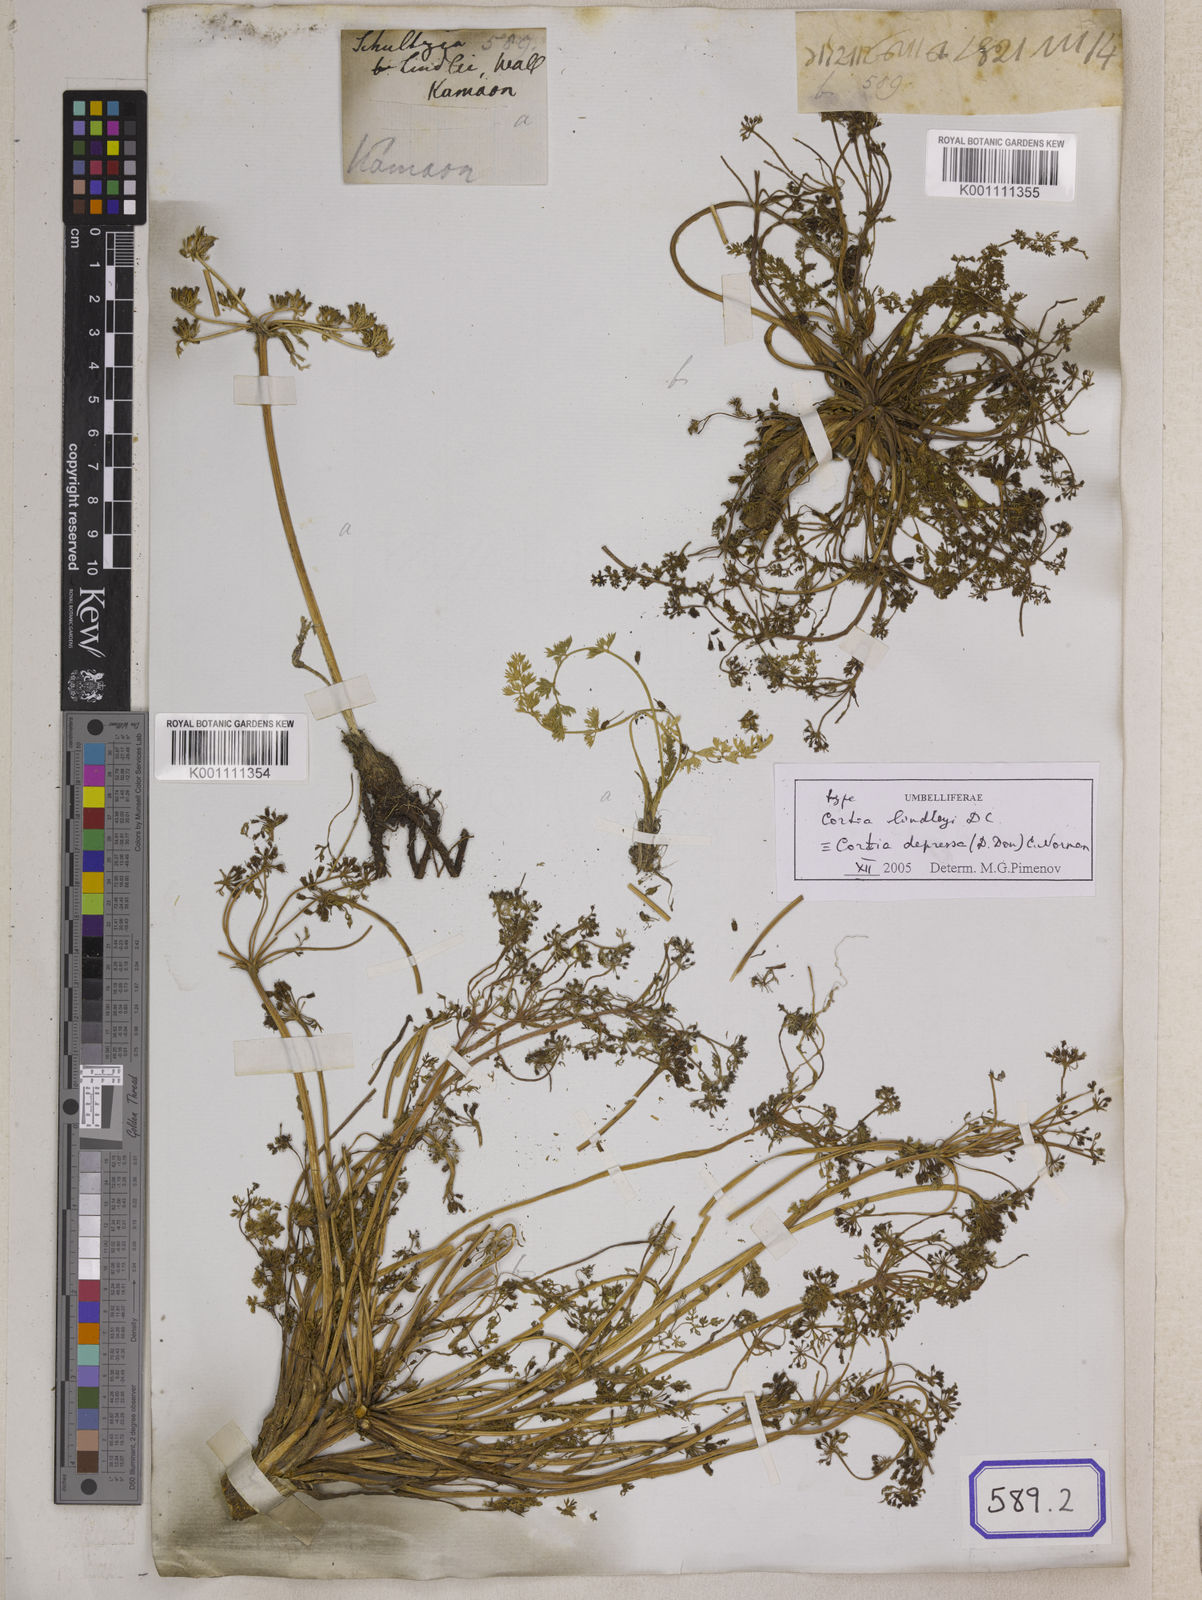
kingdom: Plantae
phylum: Tracheophyta
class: Magnoliopsida
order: Lamiales
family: Acanthaceae
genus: Herpetacanthus
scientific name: Herpetacanthus
